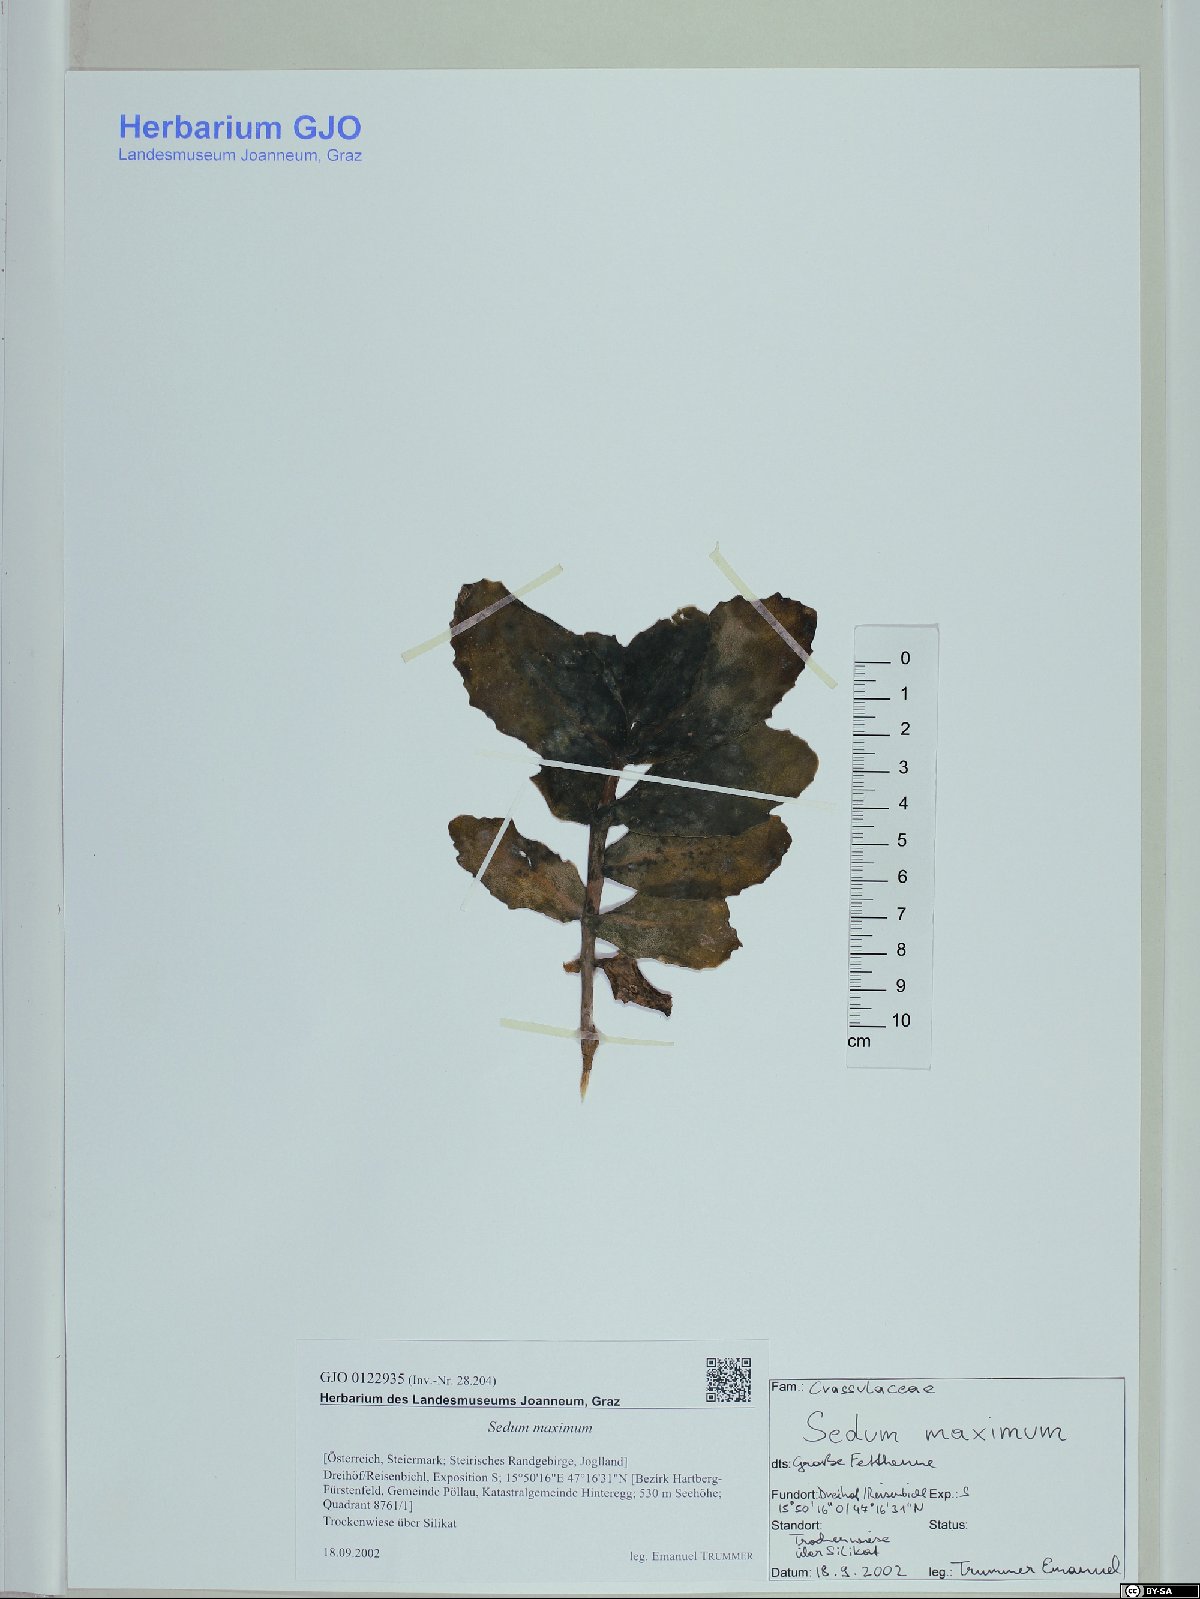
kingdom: Plantae
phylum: Tracheophyta
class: Magnoliopsida
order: Saxifragales
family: Crassulaceae
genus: Hylotelephium
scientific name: Hylotelephium maximum
